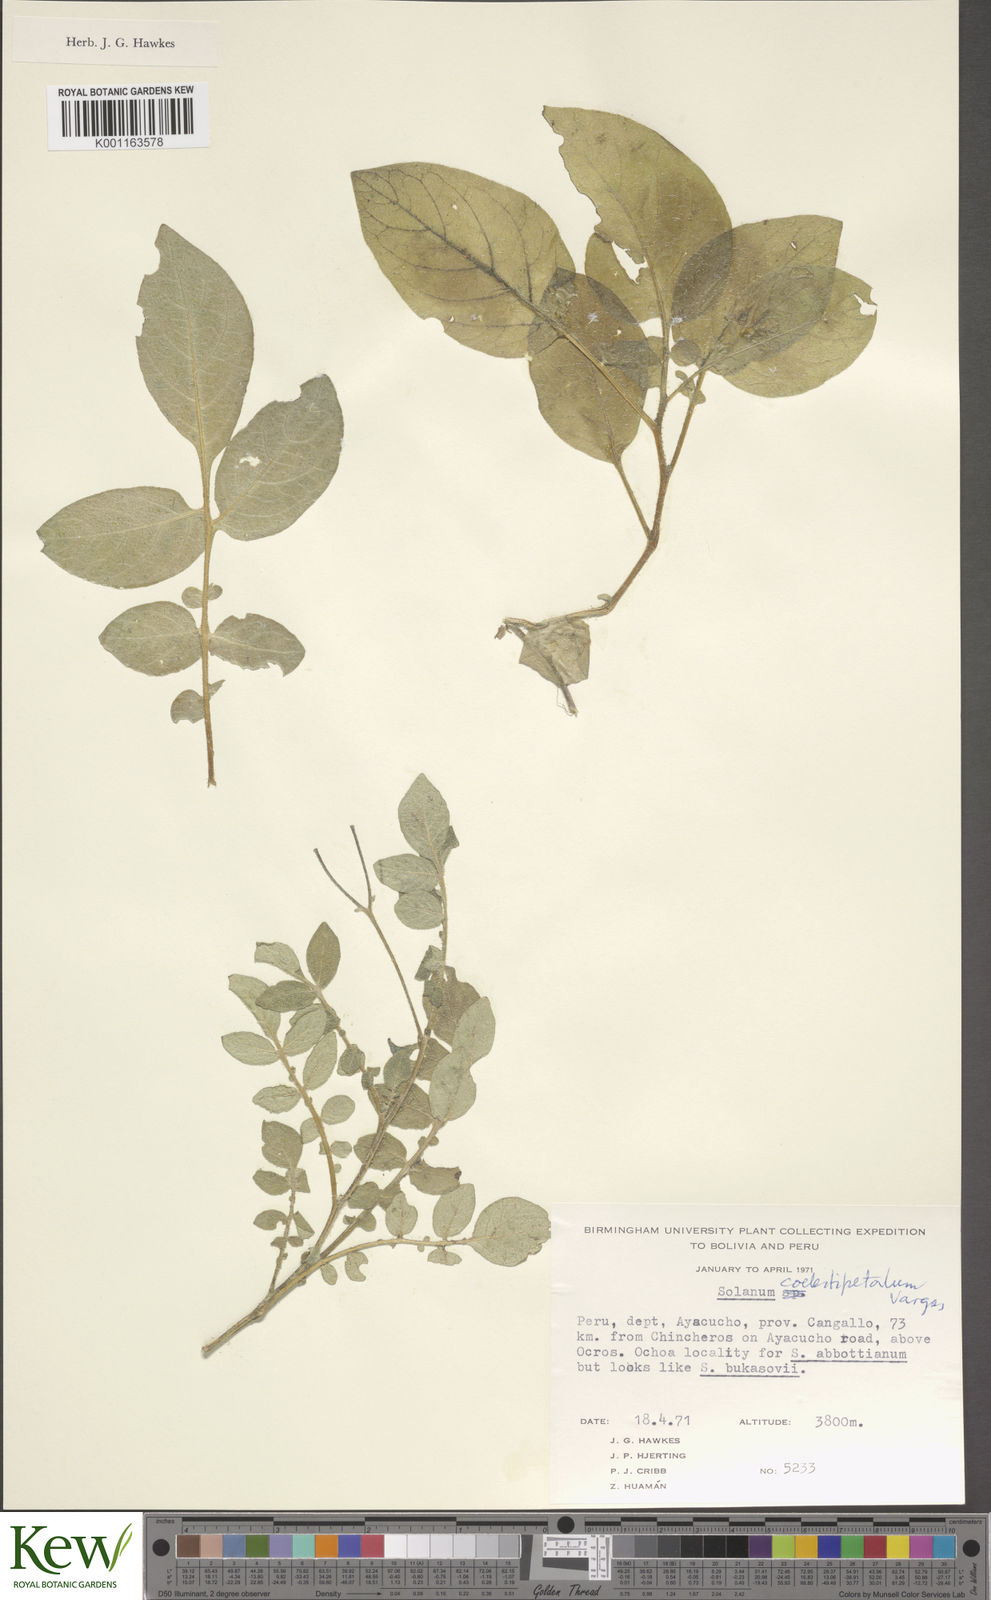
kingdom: Plantae
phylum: Tracheophyta
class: Magnoliopsida
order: Solanales
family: Solanaceae
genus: Solanum
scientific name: Solanum brevicaule
